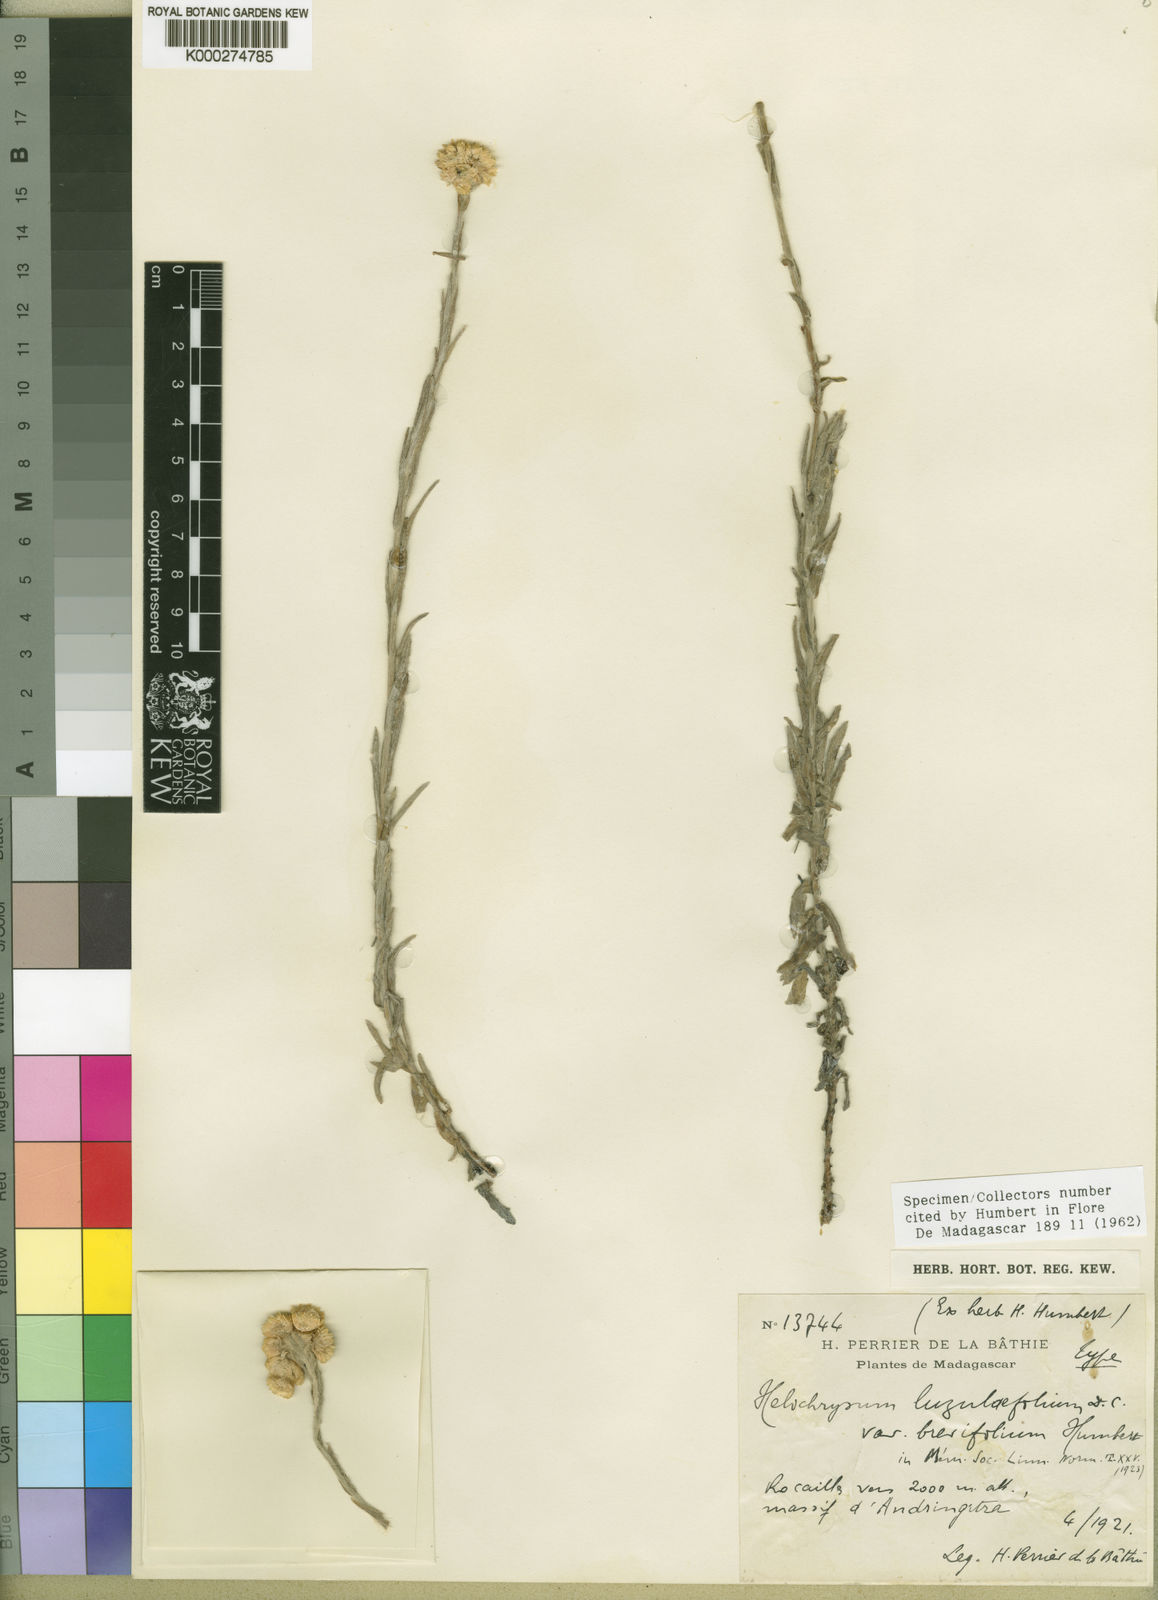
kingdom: Plantae
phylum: Tracheophyta
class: Magnoliopsida
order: Asterales
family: Asteraceae
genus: Helichrysum
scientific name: Helichrysum luzulifolium
